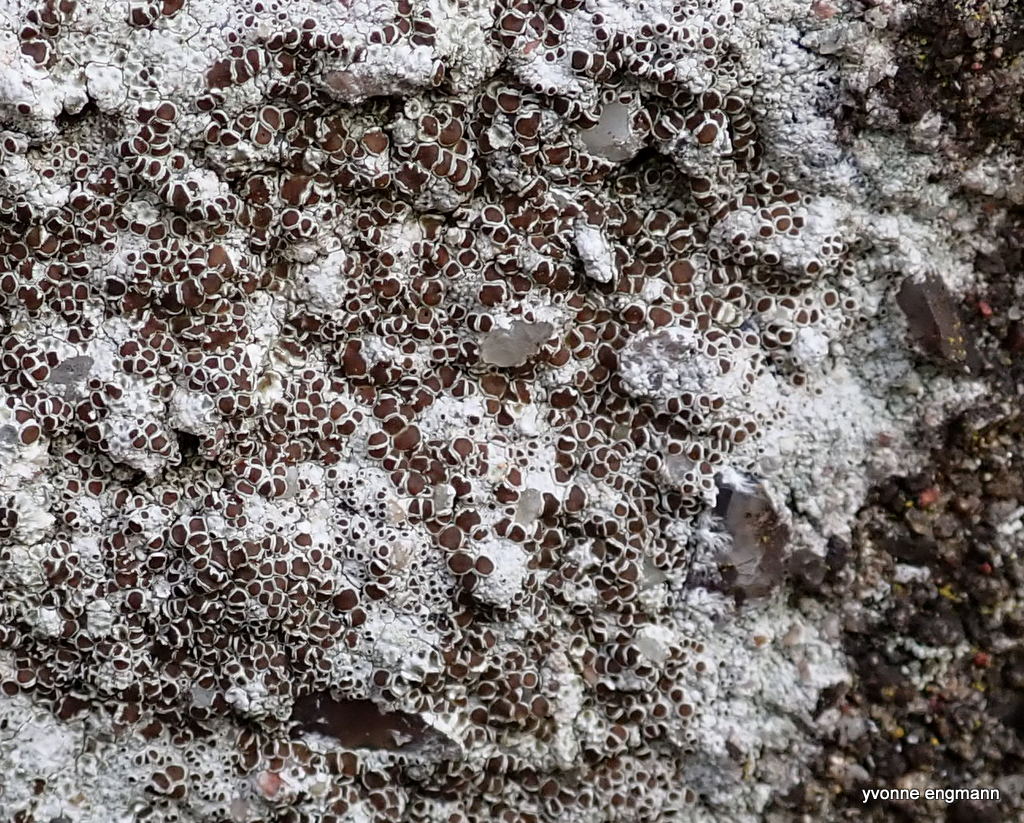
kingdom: Fungi
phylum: Ascomycota
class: Lecanoromycetes
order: Lecanorales
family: Lecanoraceae
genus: Lecanora
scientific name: Lecanora campestris
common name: mur-kantskivelav
